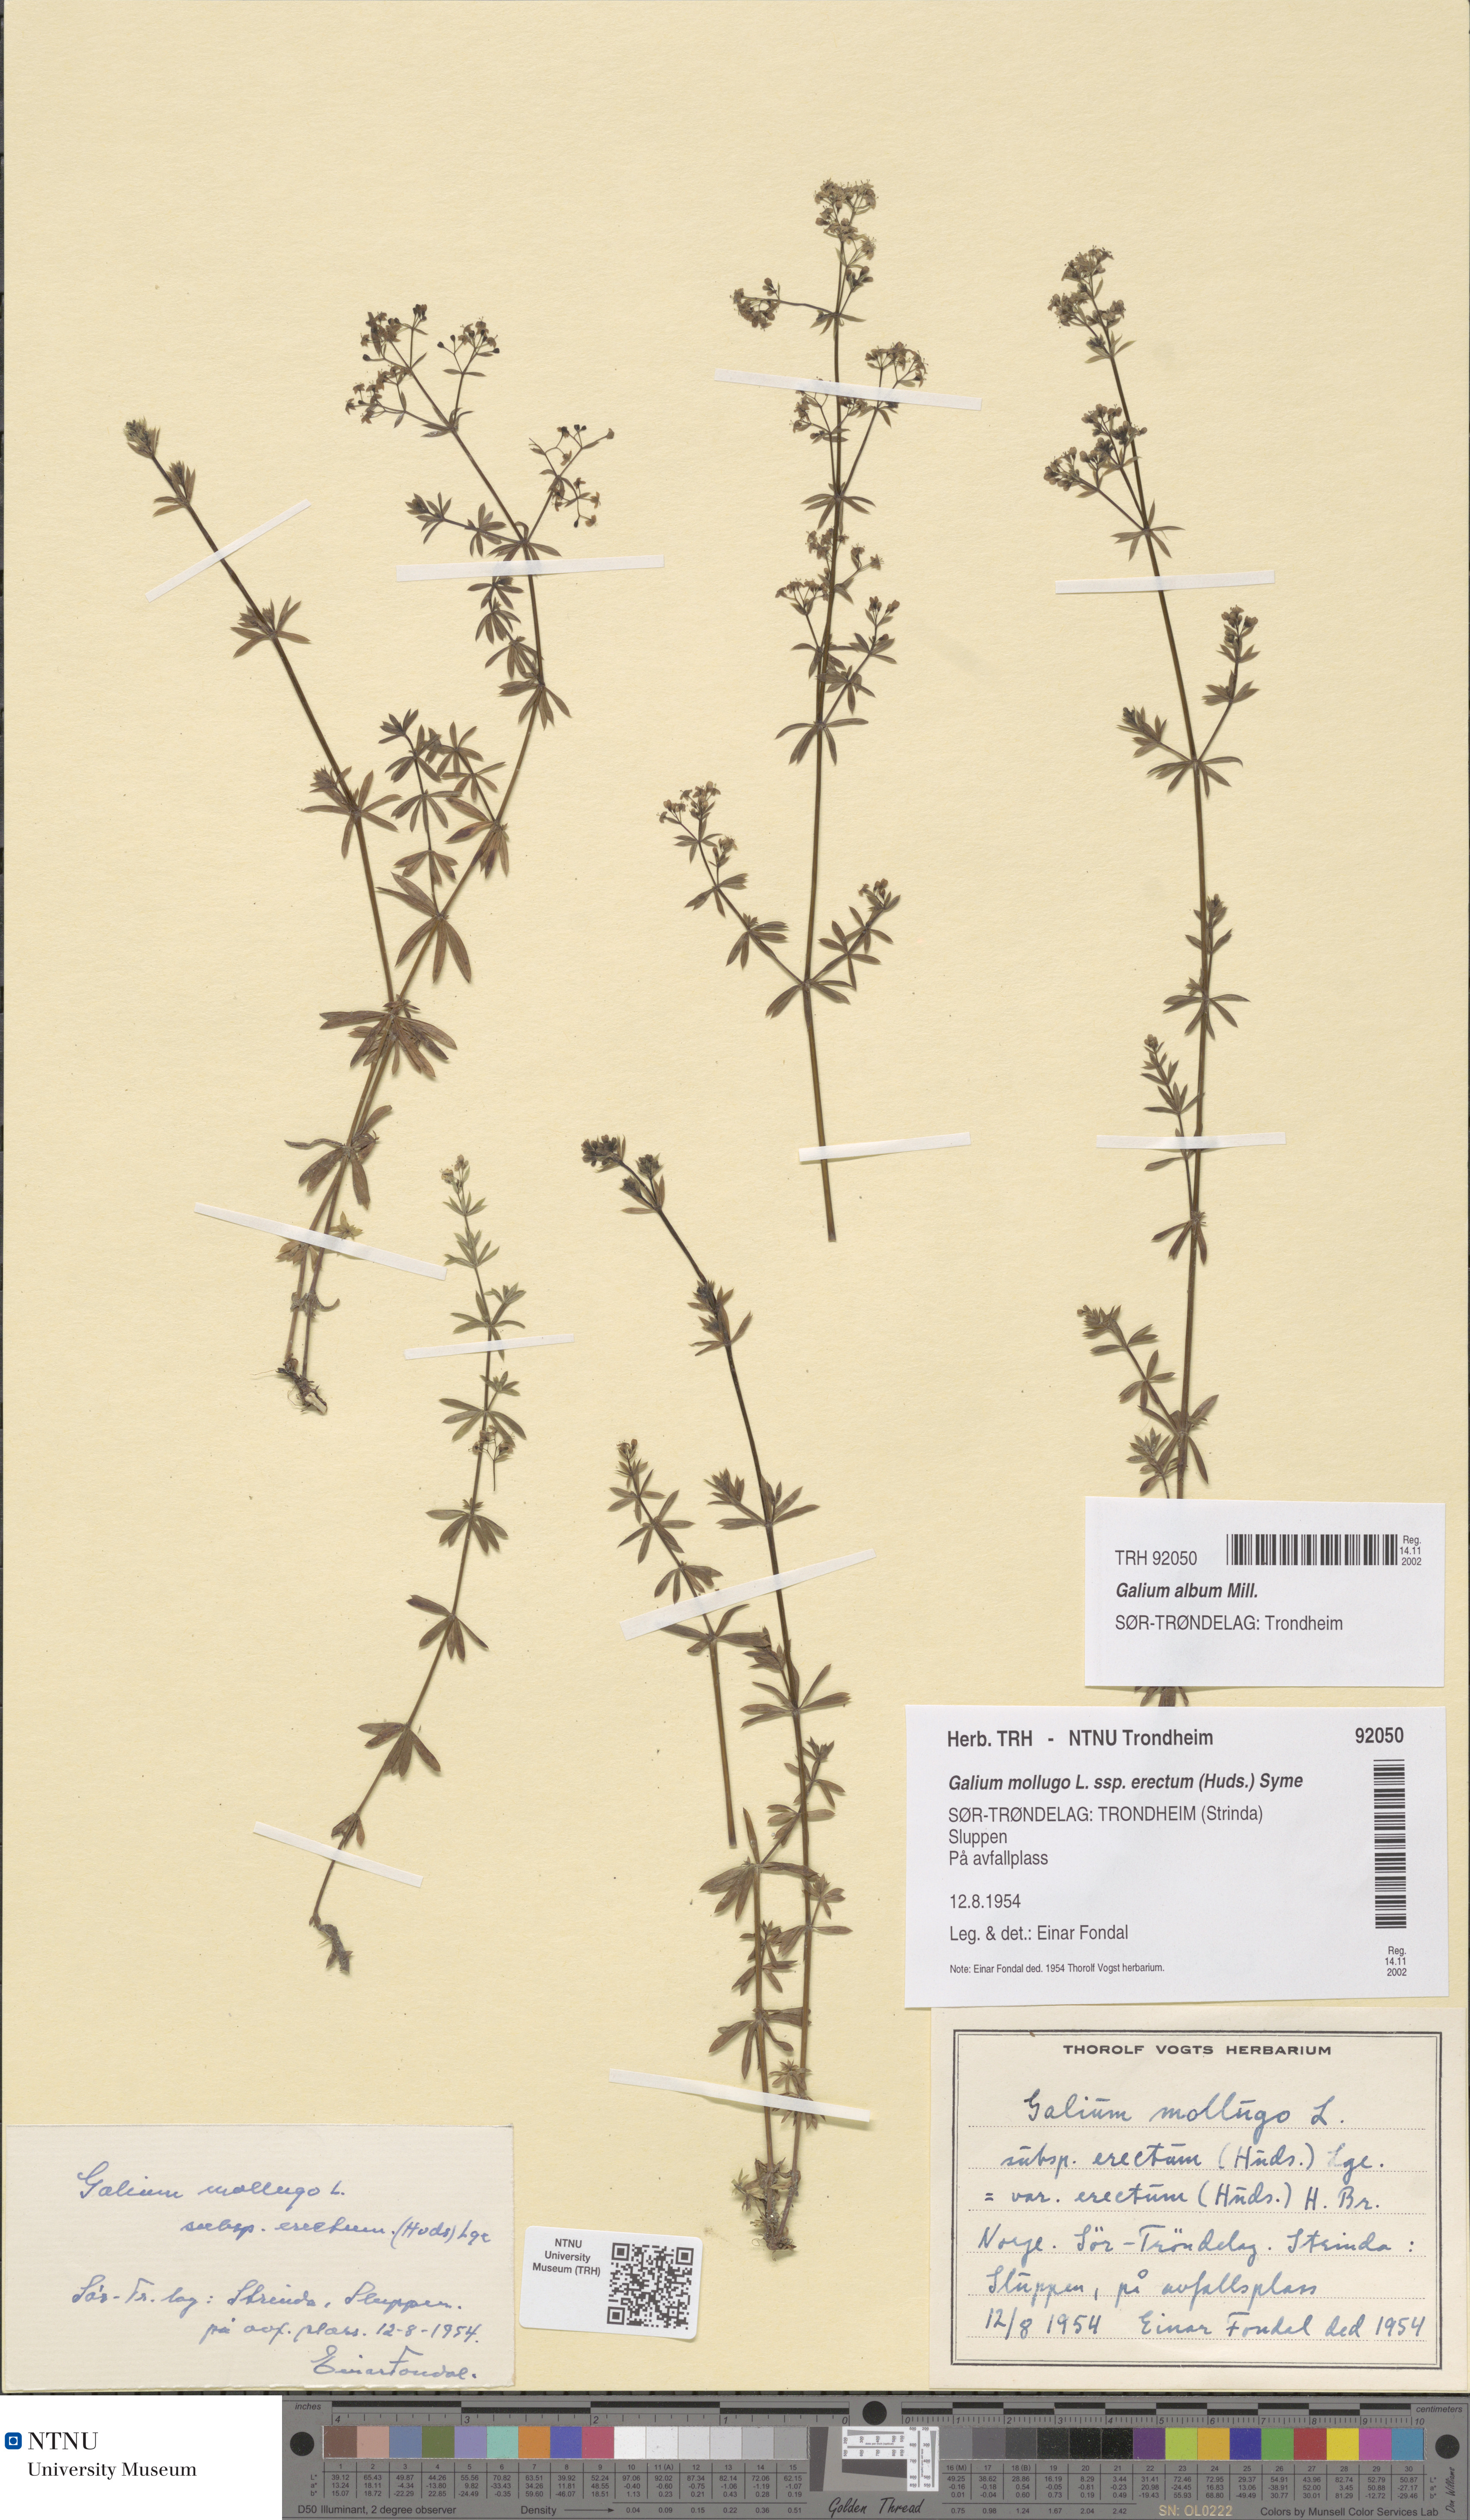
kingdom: Plantae
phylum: Tracheophyta
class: Magnoliopsida
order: Gentianales
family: Rubiaceae
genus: Galium
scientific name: Galium album
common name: White bedstraw
